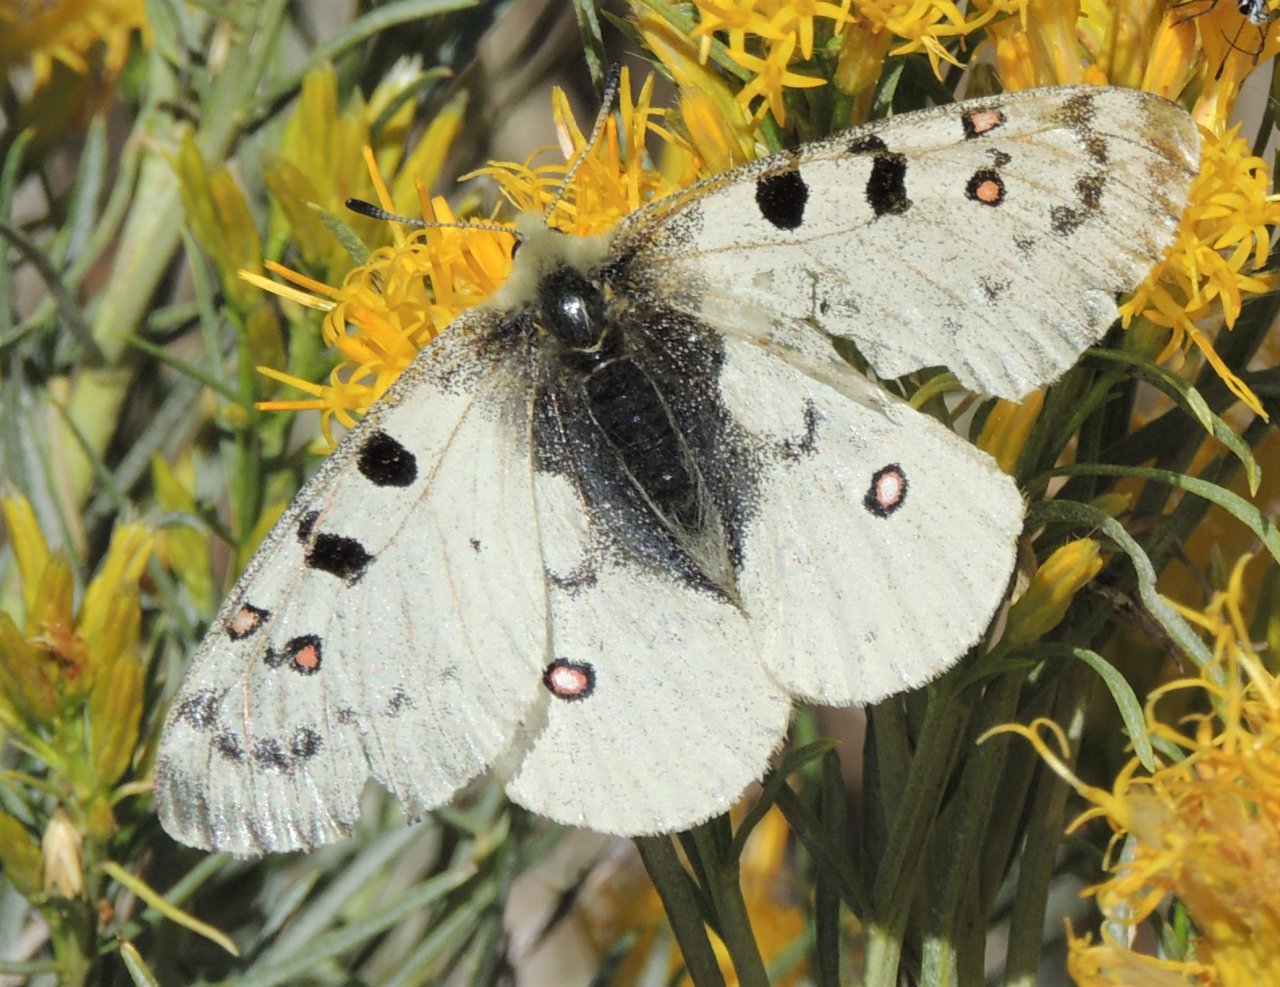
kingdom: Animalia
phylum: Arthropoda
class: Insecta
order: Lepidoptera
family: Papilionidae
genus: Parnassius
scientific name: Parnassius smintheus
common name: Rocky Mountain Parnassian
